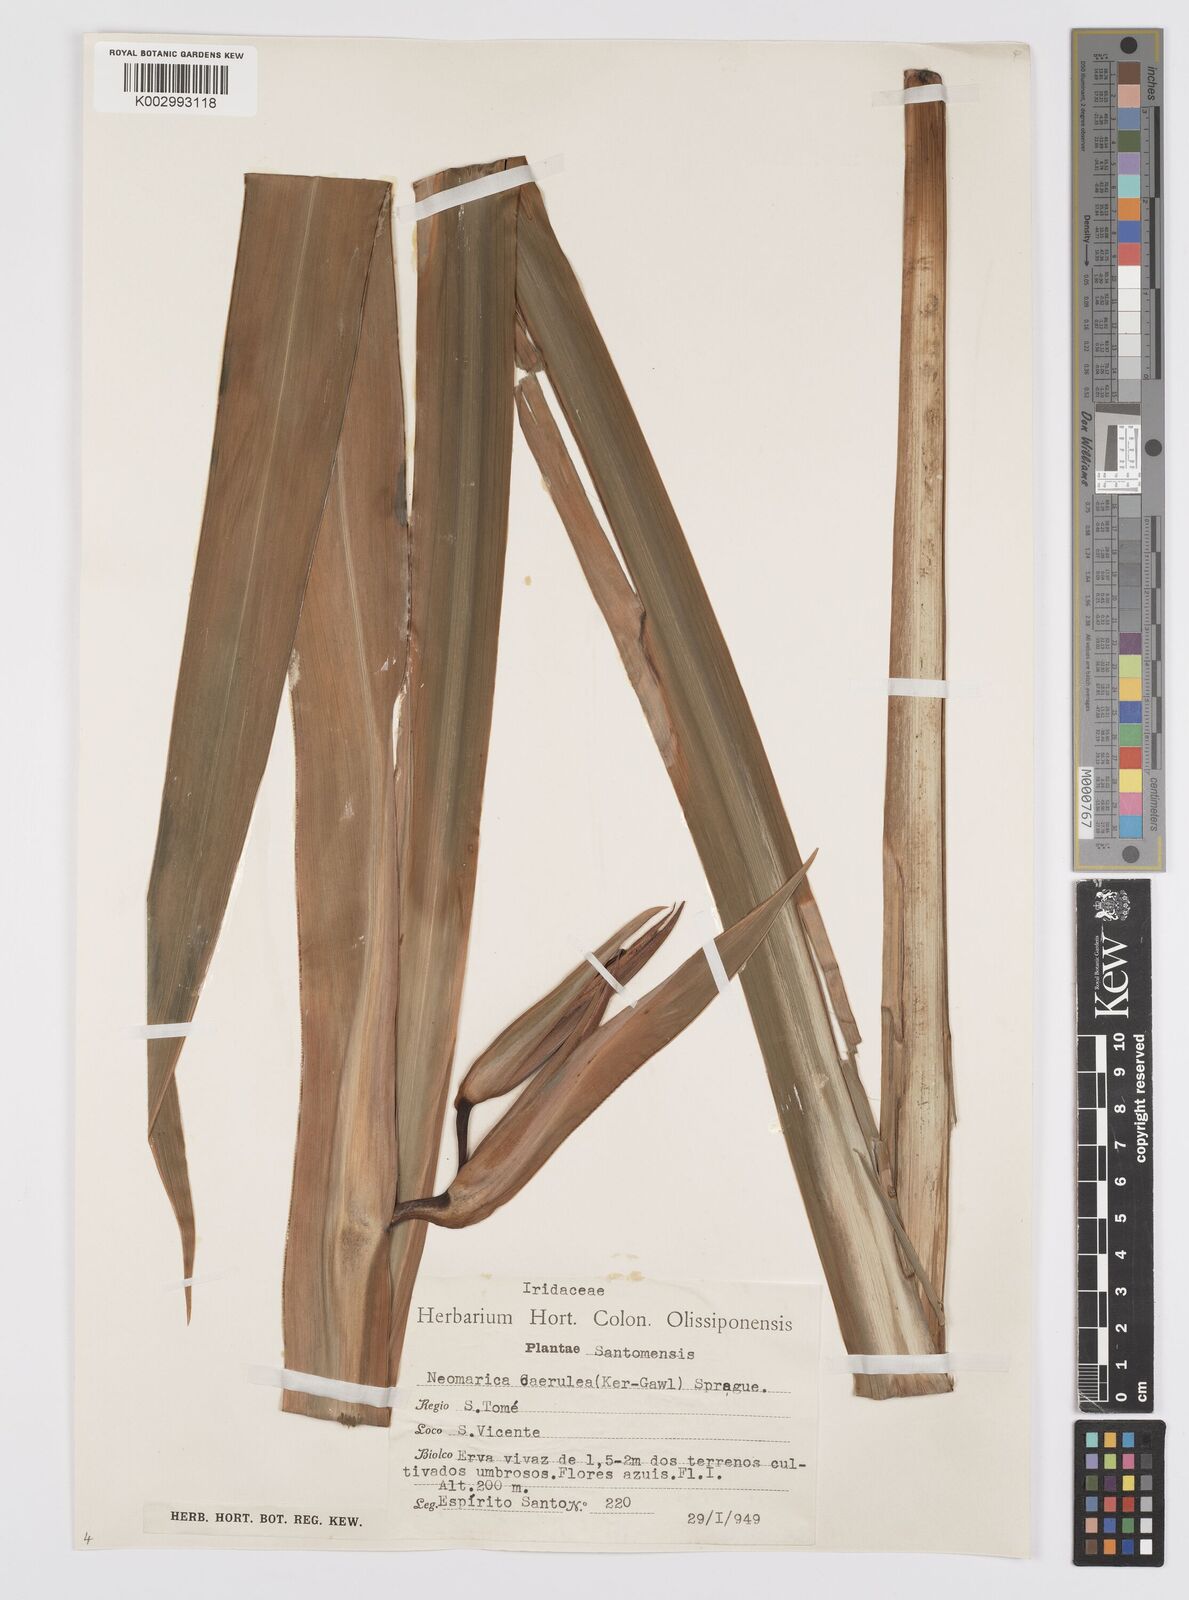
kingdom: Plantae
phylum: Tracheophyta
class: Liliopsida
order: Asparagales
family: Iridaceae
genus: Trimezia
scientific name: Trimezia coerulea
